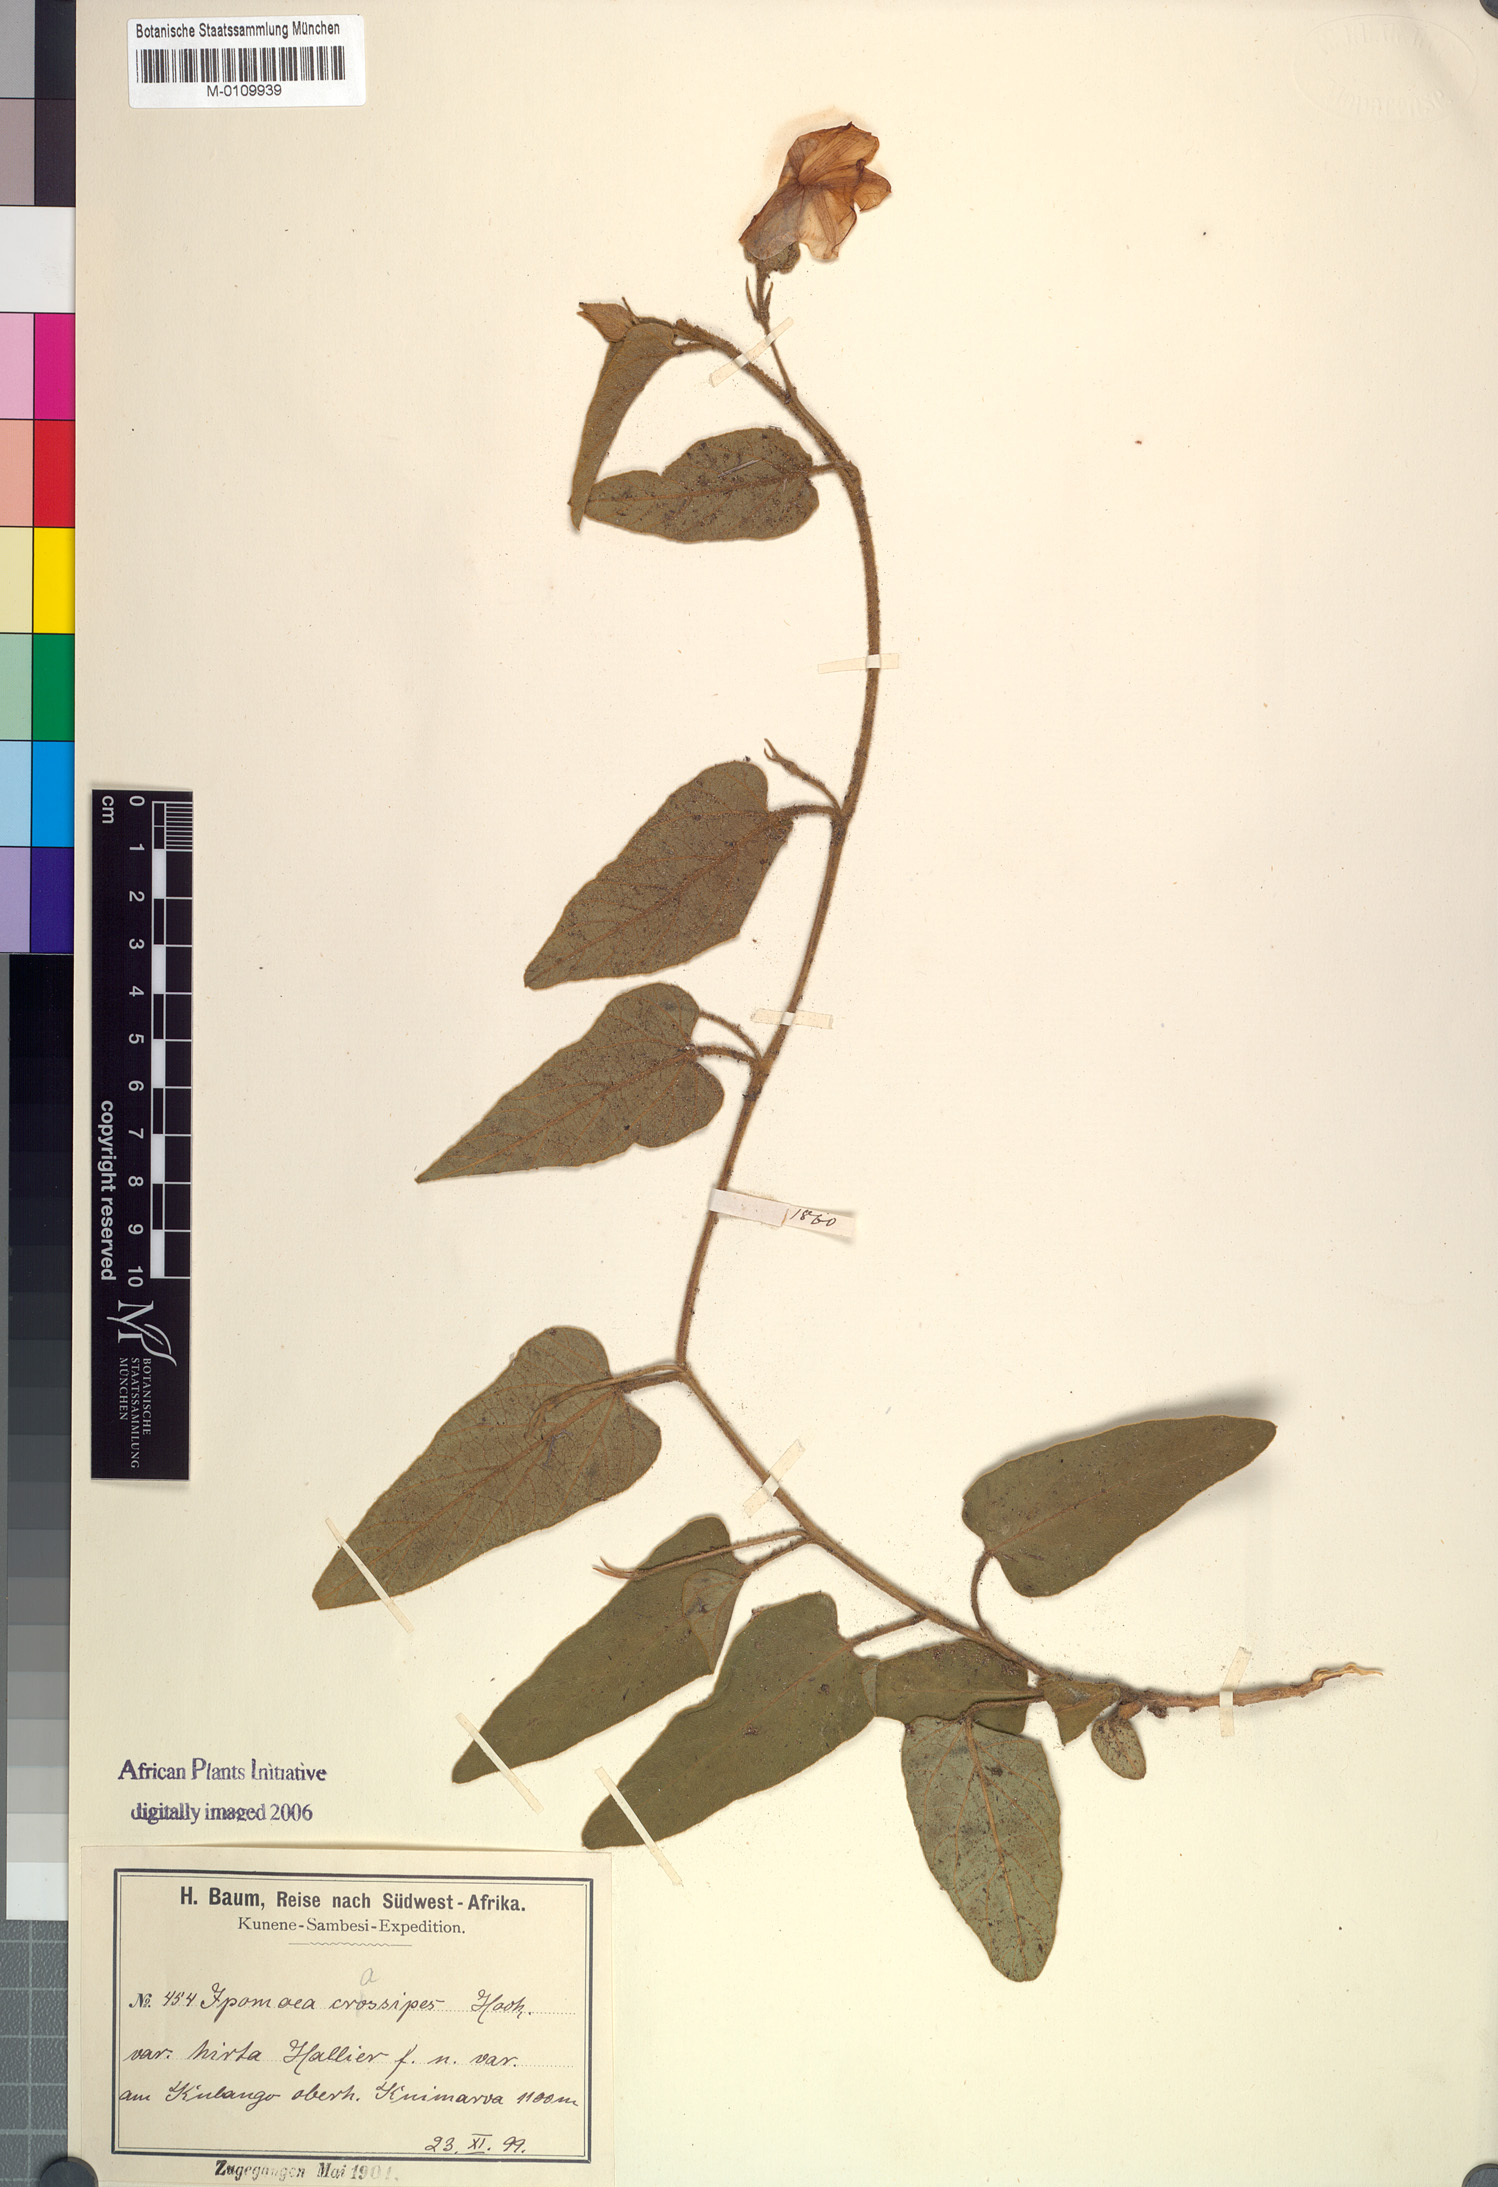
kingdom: Plantae
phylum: Tracheophyta
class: Magnoliopsida
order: Solanales
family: Convolvulaceae
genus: Ipomoea
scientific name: Ipomoea crassipes
